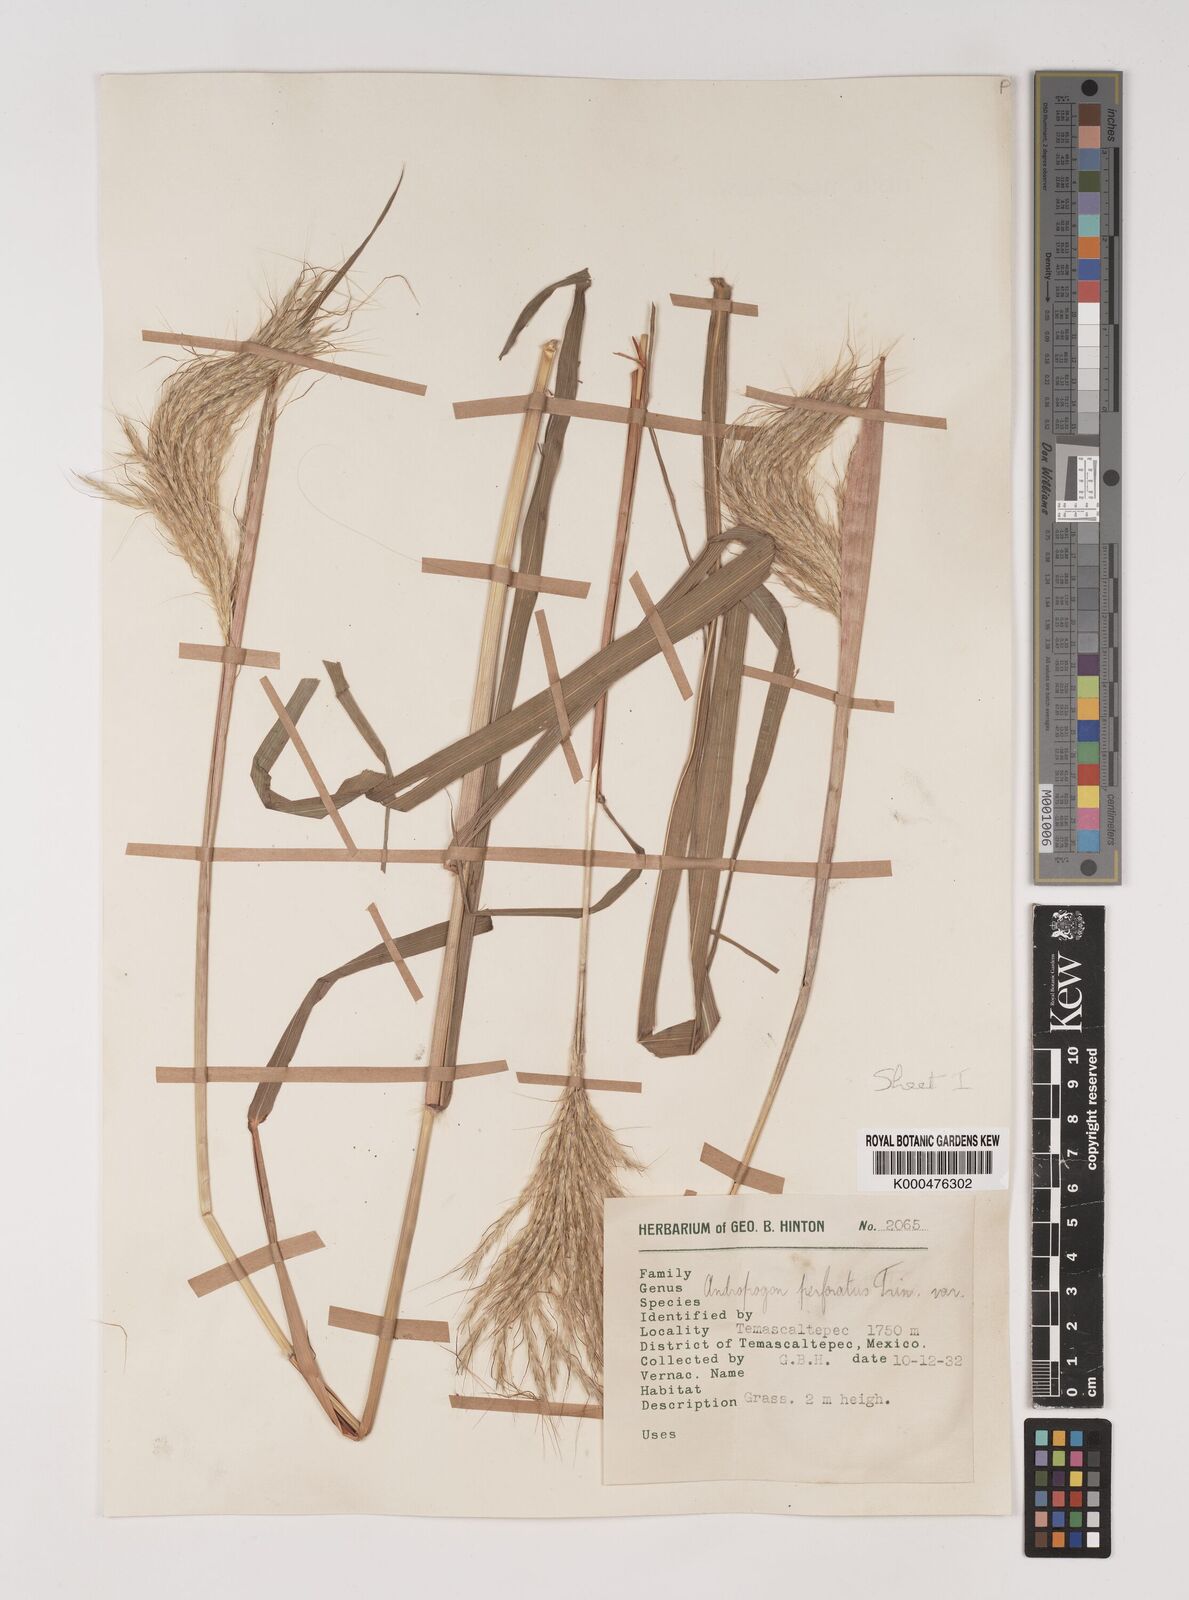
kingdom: Plantae
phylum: Tracheophyta
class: Liliopsida
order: Poales
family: Poaceae
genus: Bothriochloa
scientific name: Bothriochloa barbinodis
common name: Cane bluestem
